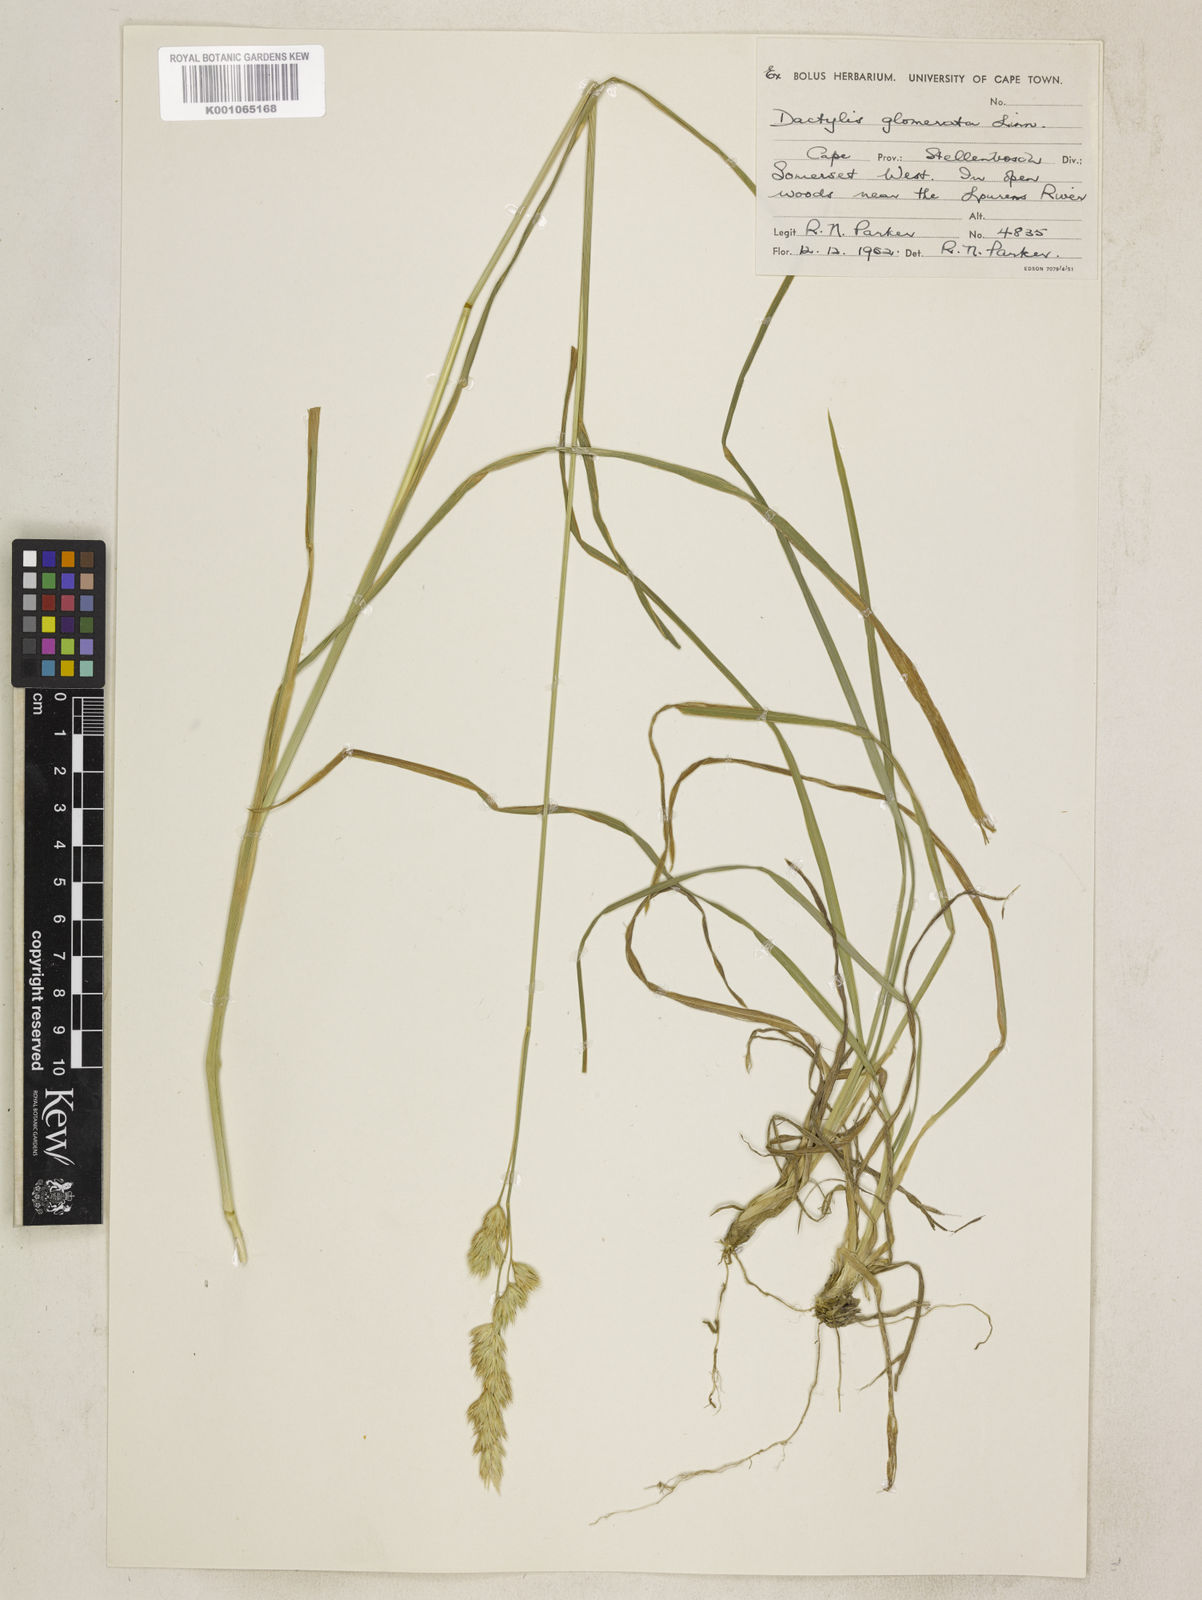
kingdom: Plantae
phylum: Tracheophyta
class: Liliopsida
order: Poales
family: Poaceae
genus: Dactylis
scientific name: Dactylis glomerata
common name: Orchardgrass
